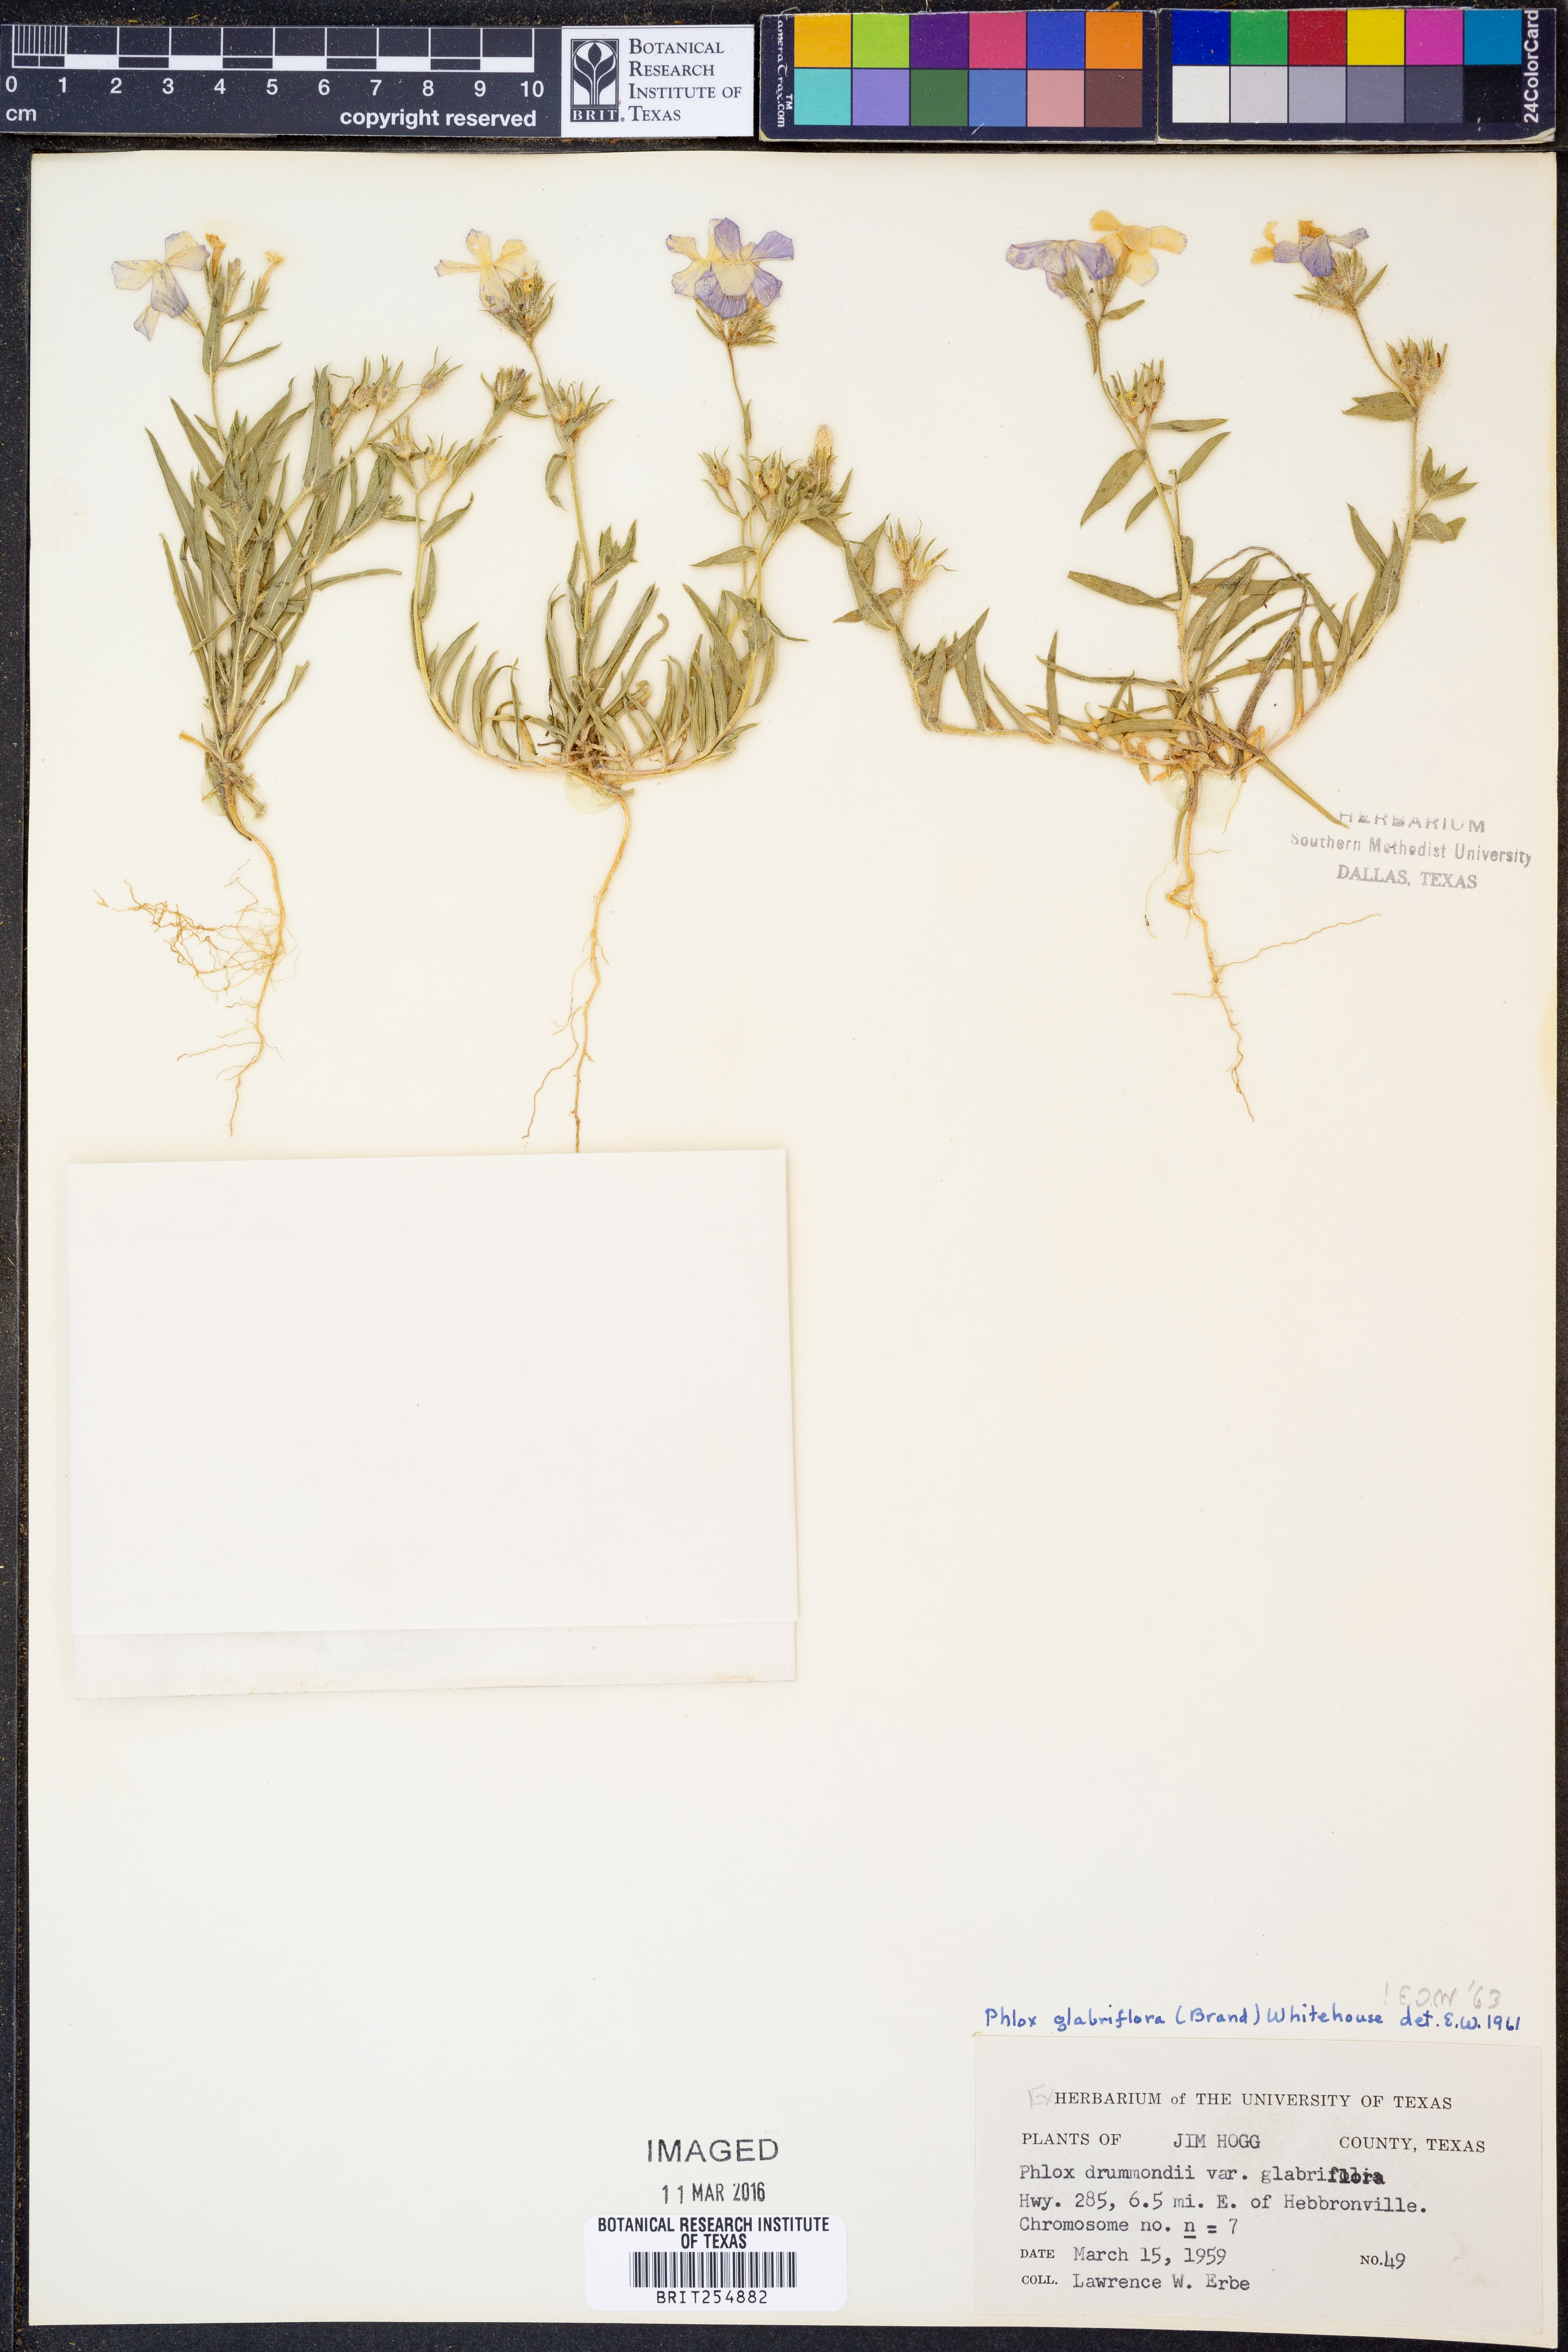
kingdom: Plantae
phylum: Tracheophyta
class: Magnoliopsida
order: Ericales
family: Polemoniaceae
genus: Phlox
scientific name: Phlox glabriflora
